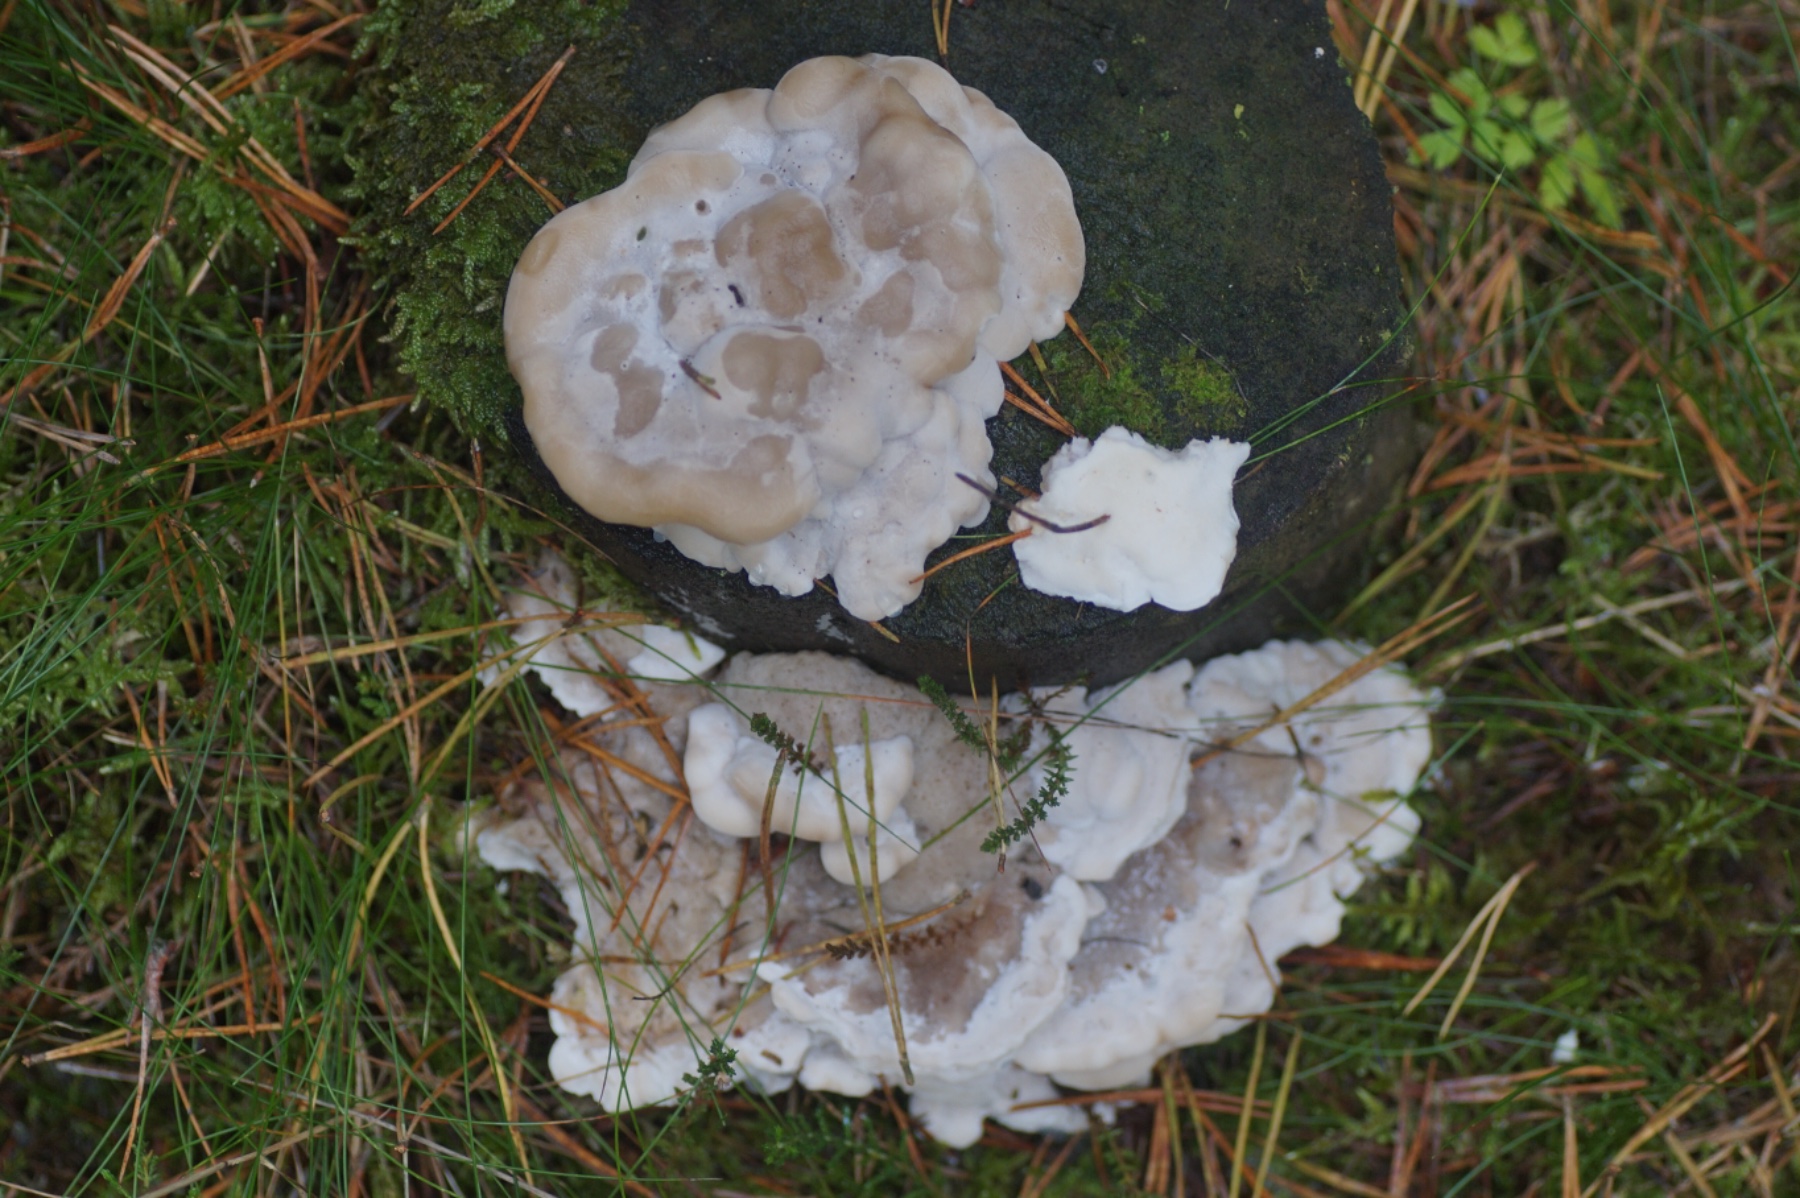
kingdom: Fungi
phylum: Basidiomycota
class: Agaricomycetes
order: Polyporales
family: Incrustoporiaceae
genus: Tyromyces
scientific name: Tyromyces lacteus
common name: mælkehvid kødporesvamp
